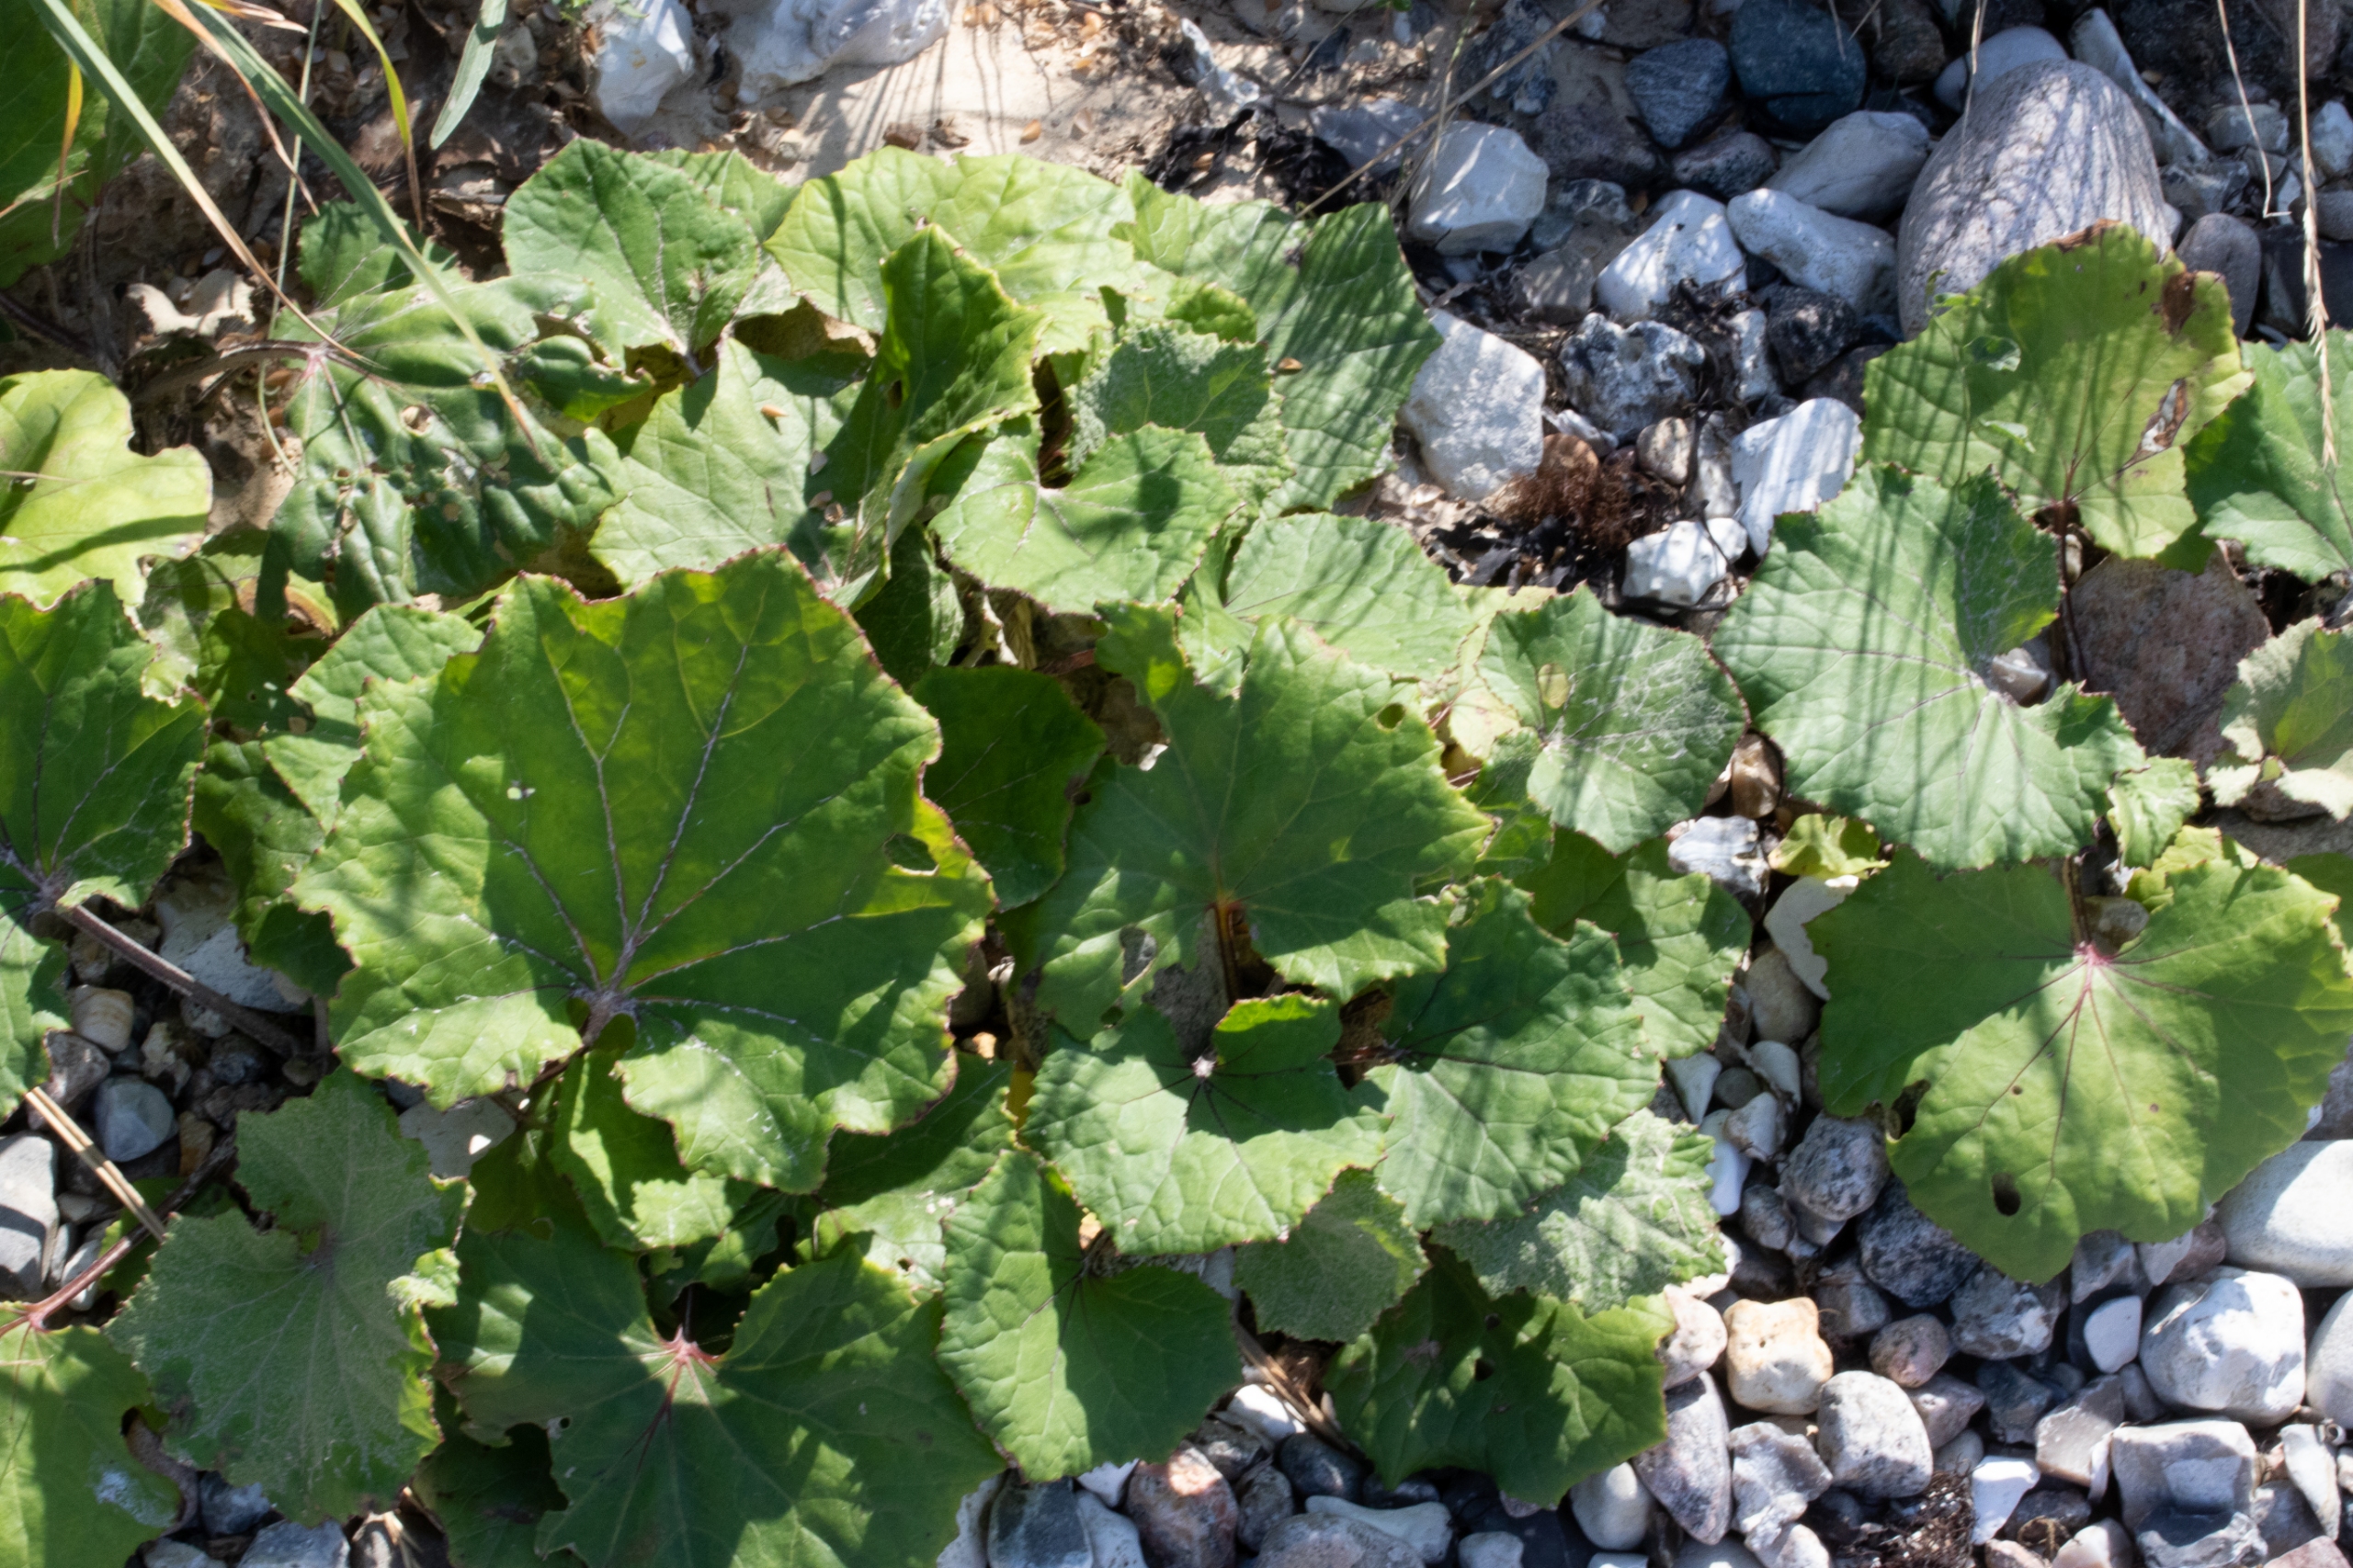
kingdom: Plantae
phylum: Tracheophyta
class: Magnoliopsida
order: Asterales
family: Asteraceae
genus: Tussilago
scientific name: Tussilago farfara
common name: Følfod
